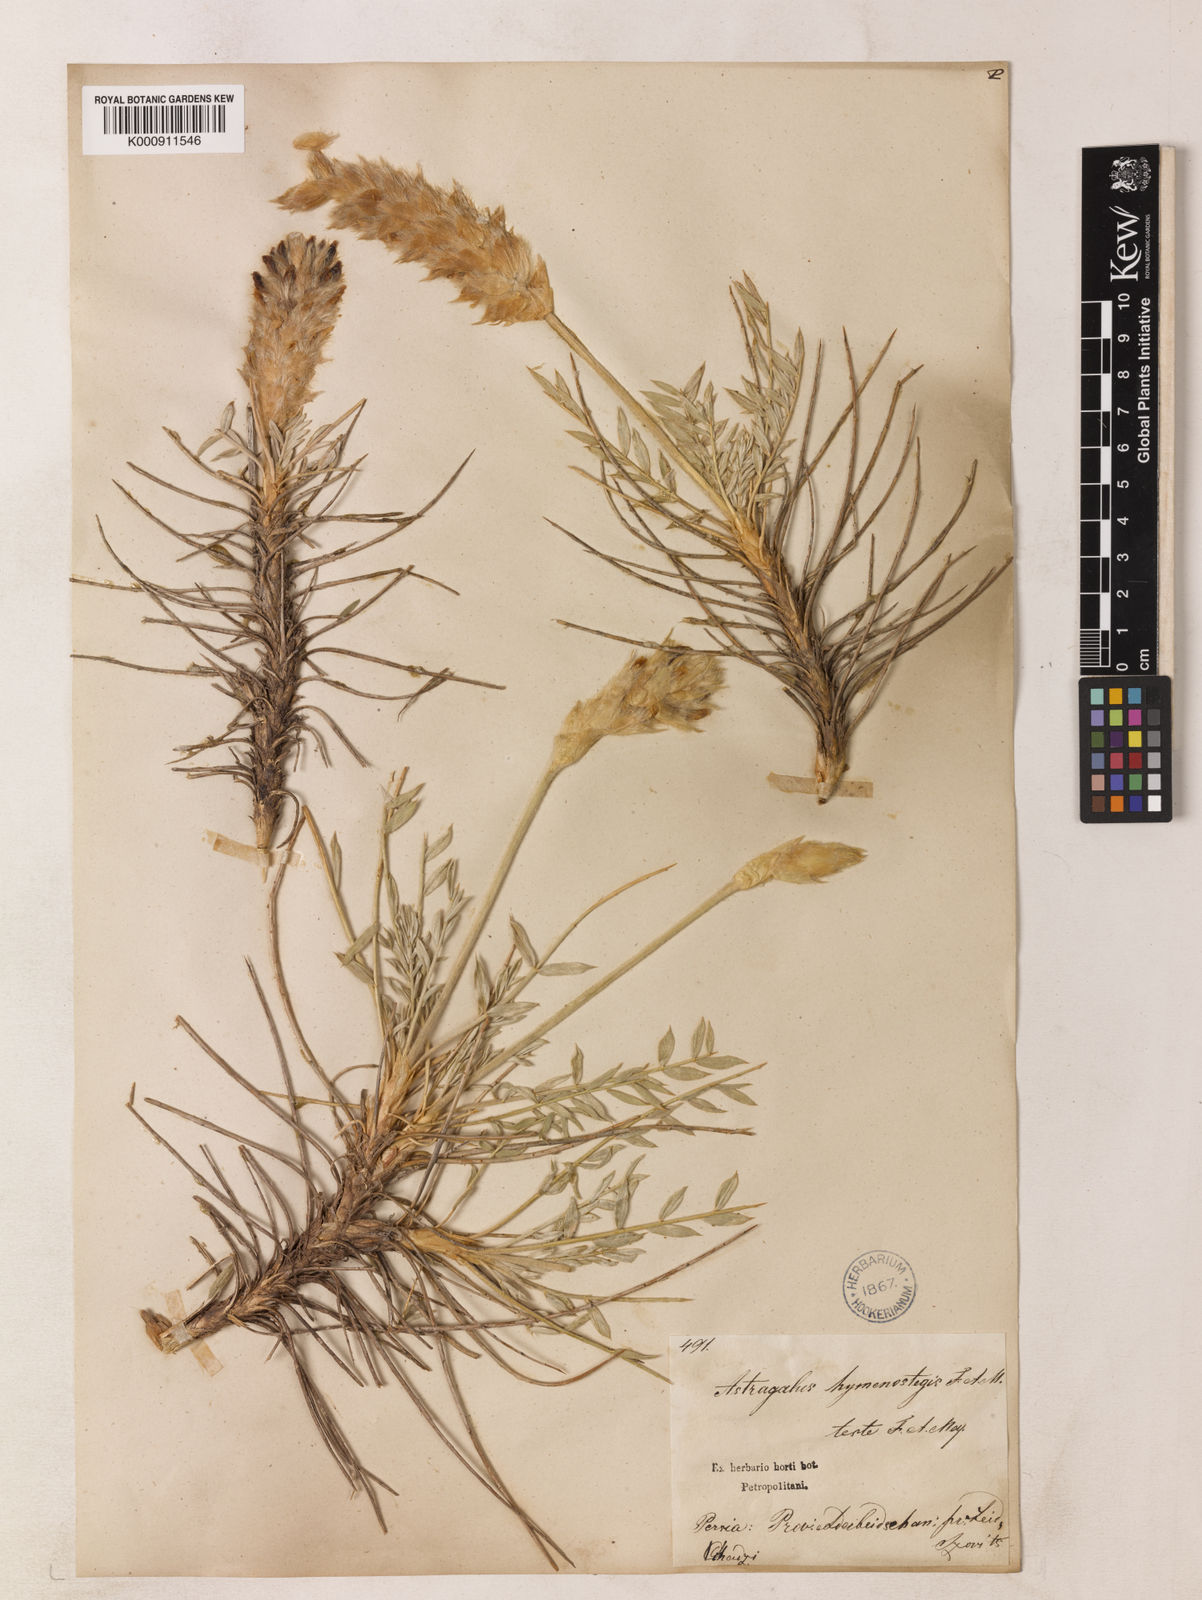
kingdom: Plantae
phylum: Tracheophyta
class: Magnoliopsida
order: Fabales
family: Fabaceae
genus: Astragalus
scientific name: Astragalus hymenostegis
